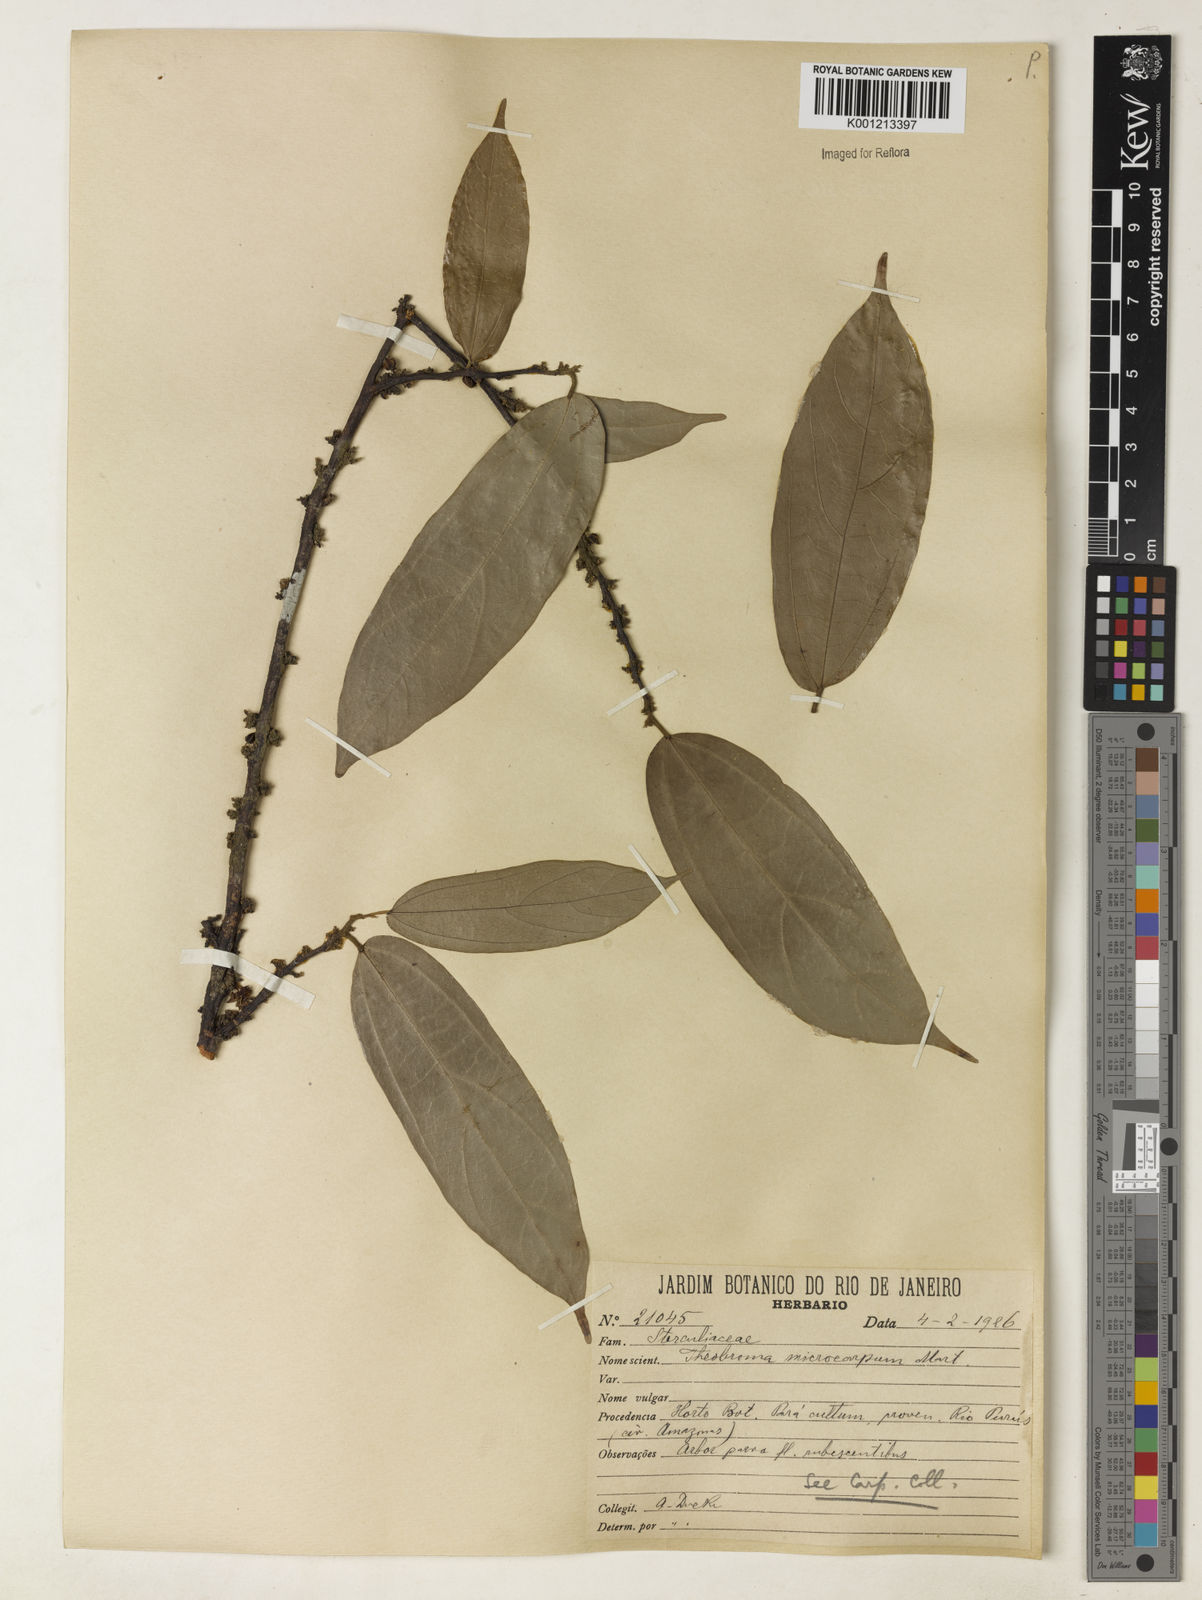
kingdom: Plantae
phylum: Tracheophyta
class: Magnoliopsida
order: Malvales
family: Malvaceae
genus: Theobroma
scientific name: Theobroma microcarpum
